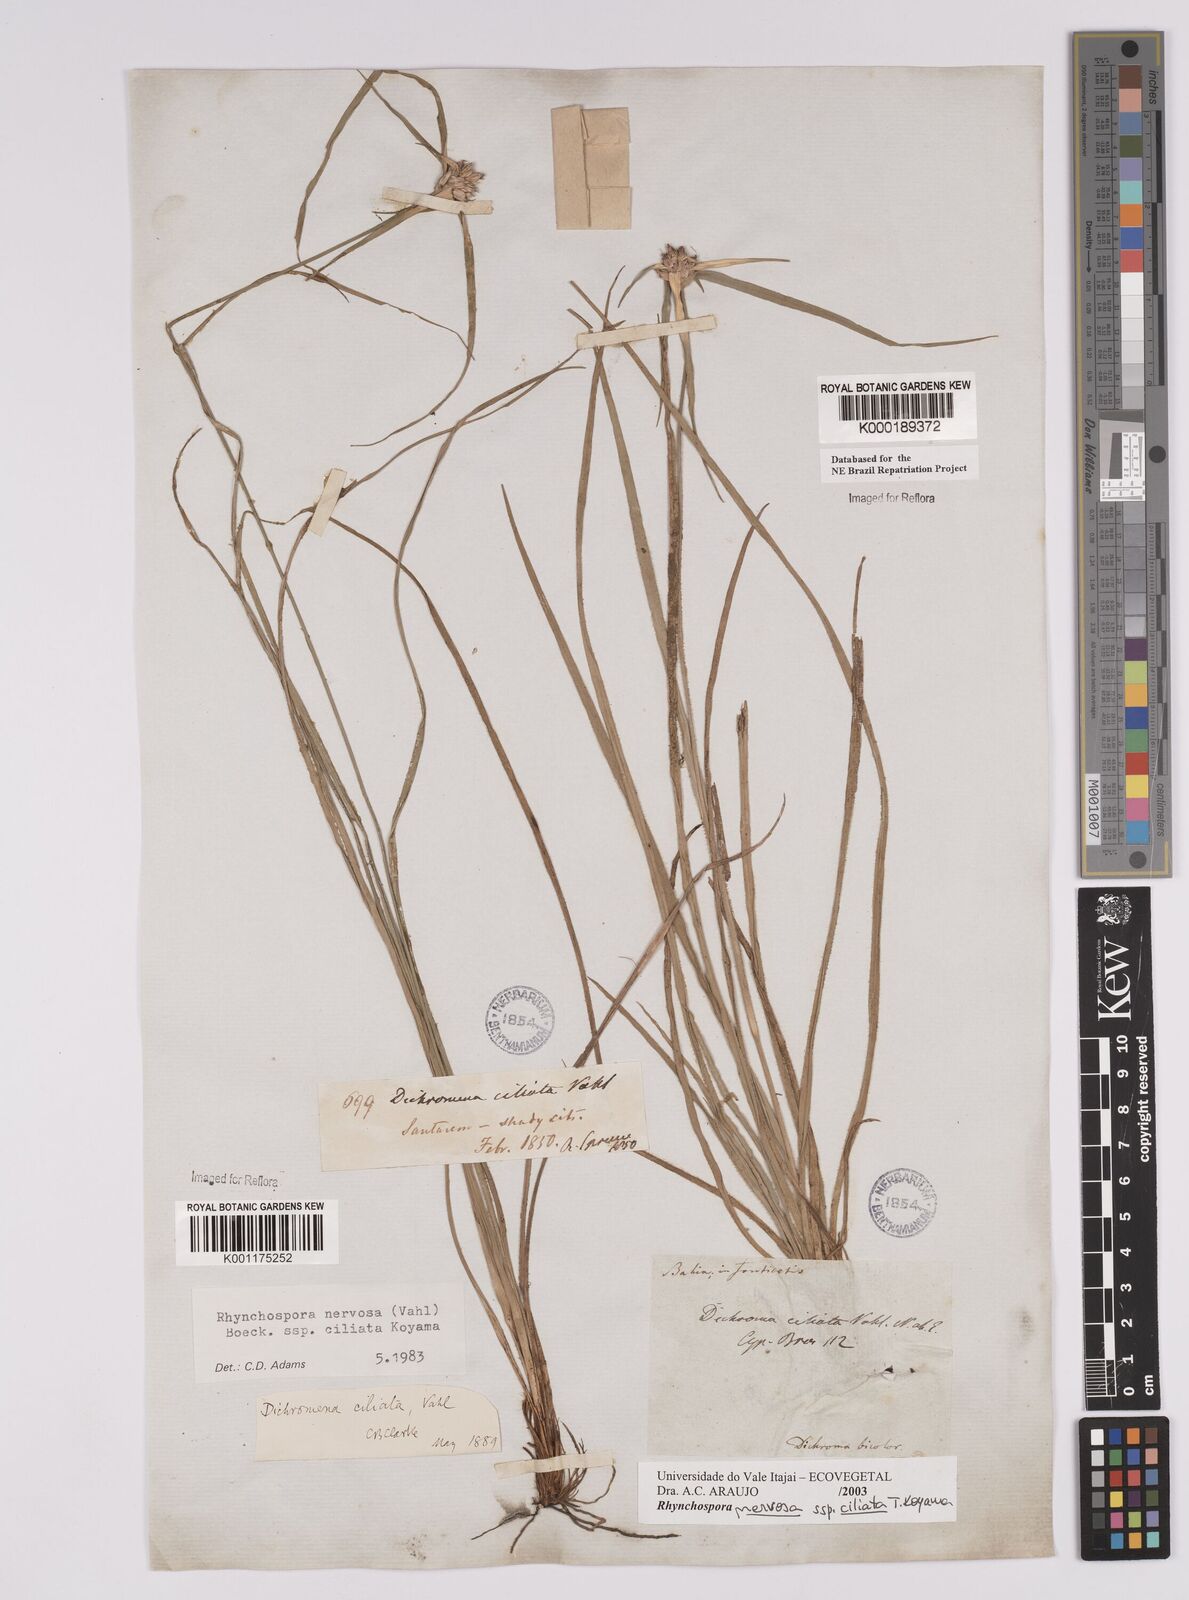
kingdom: Plantae
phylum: Tracheophyta
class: Liliopsida
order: Poales
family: Cyperaceae
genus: Rhynchospora
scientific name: Rhynchospora pura
